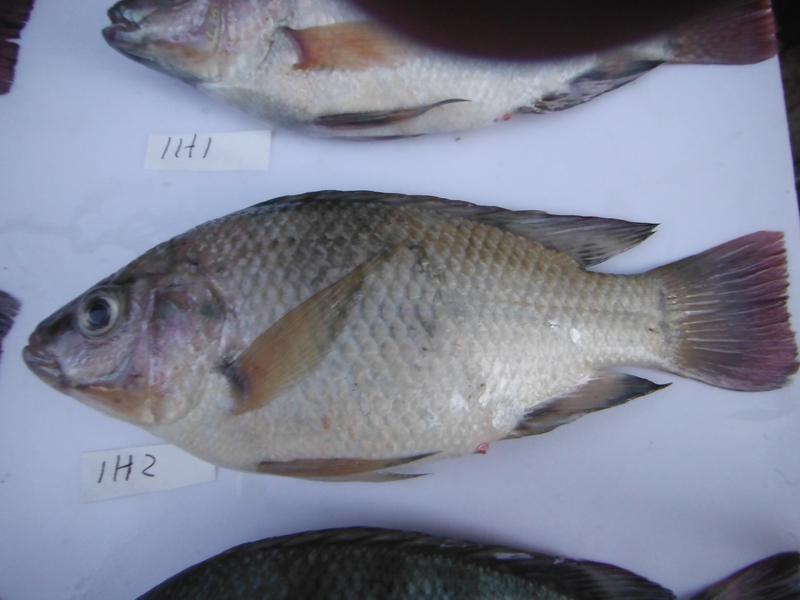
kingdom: Animalia
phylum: Chordata
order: Perciformes
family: Cichlidae
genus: Oreochromis
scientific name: Oreochromis rukwaensis
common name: Lake rukwa tilapia
